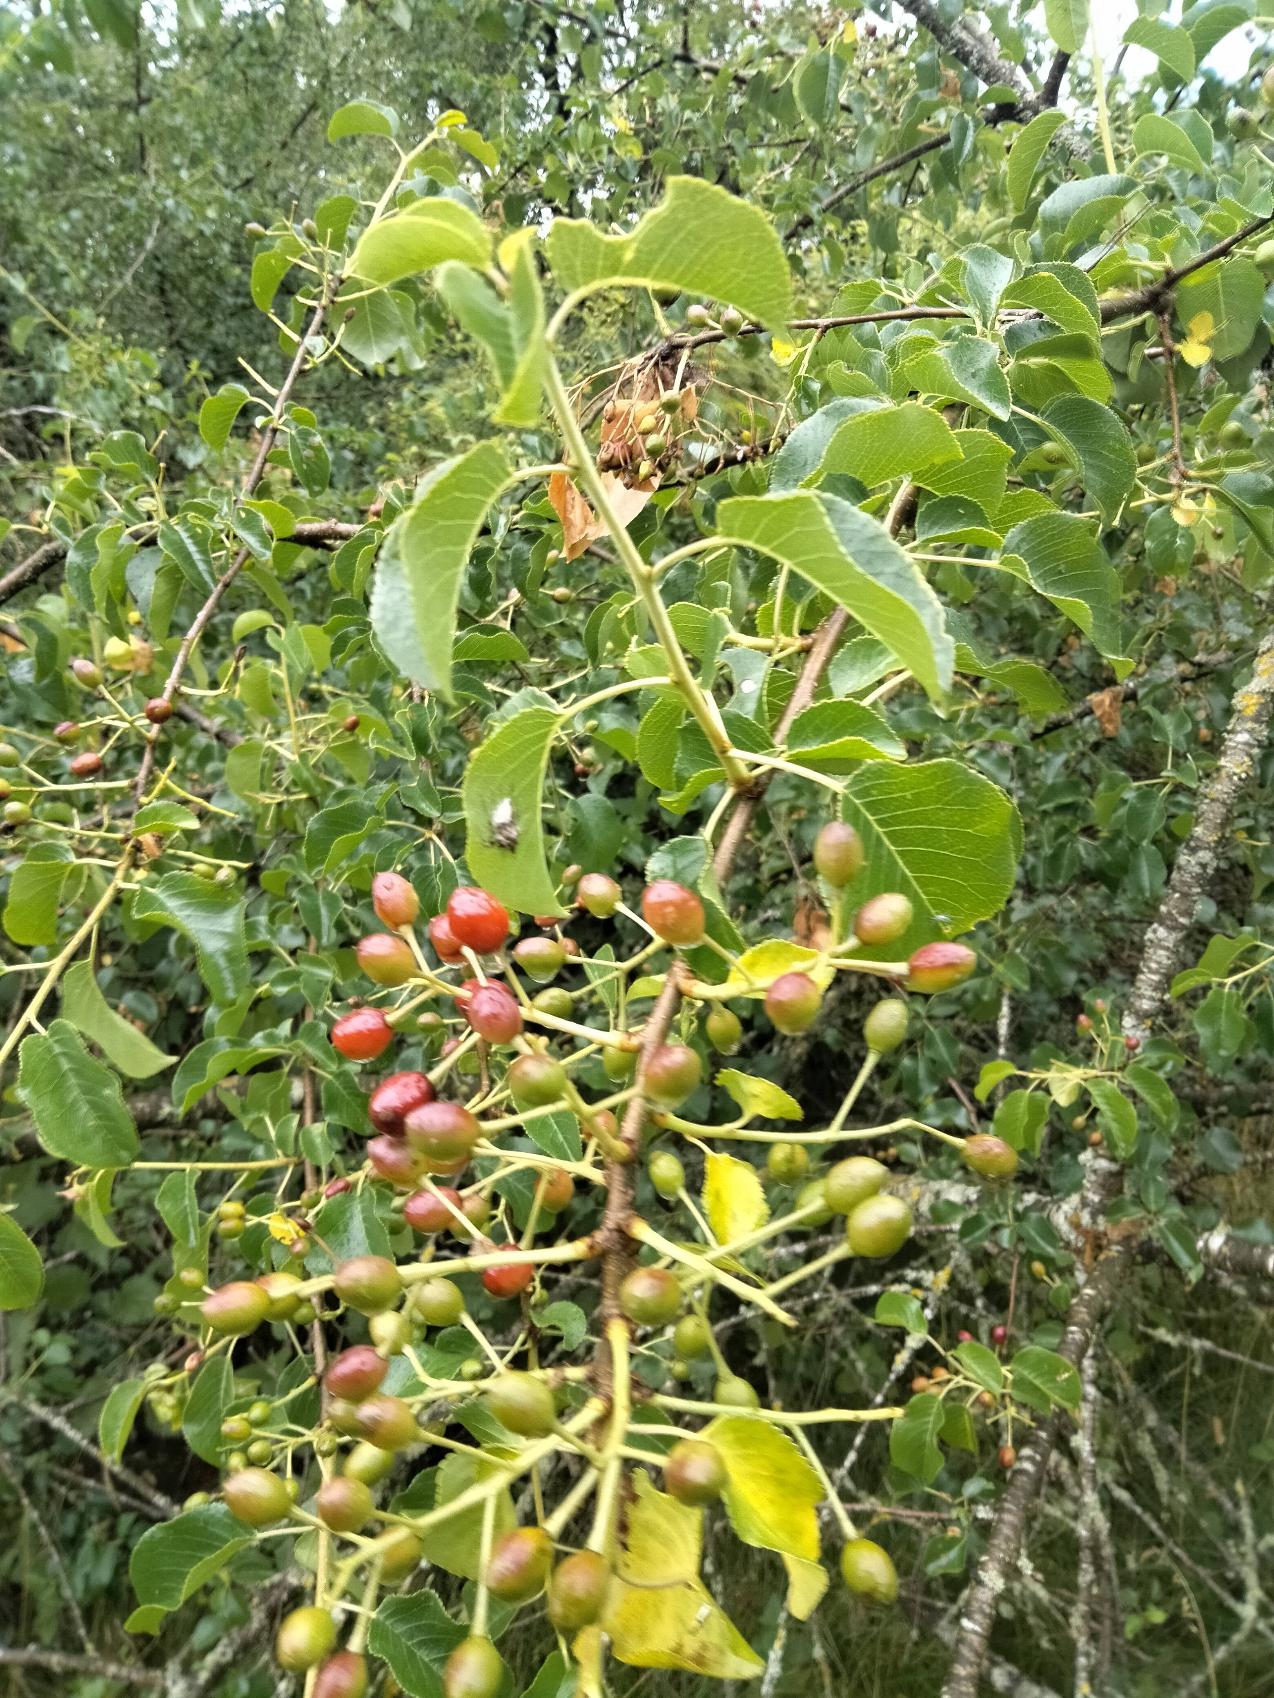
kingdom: Plantae
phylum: Tracheophyta
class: Magnoliopsida
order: Rosales
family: Rosaceae
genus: Prunus
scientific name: Prunus mahaleb
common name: Weichsel
